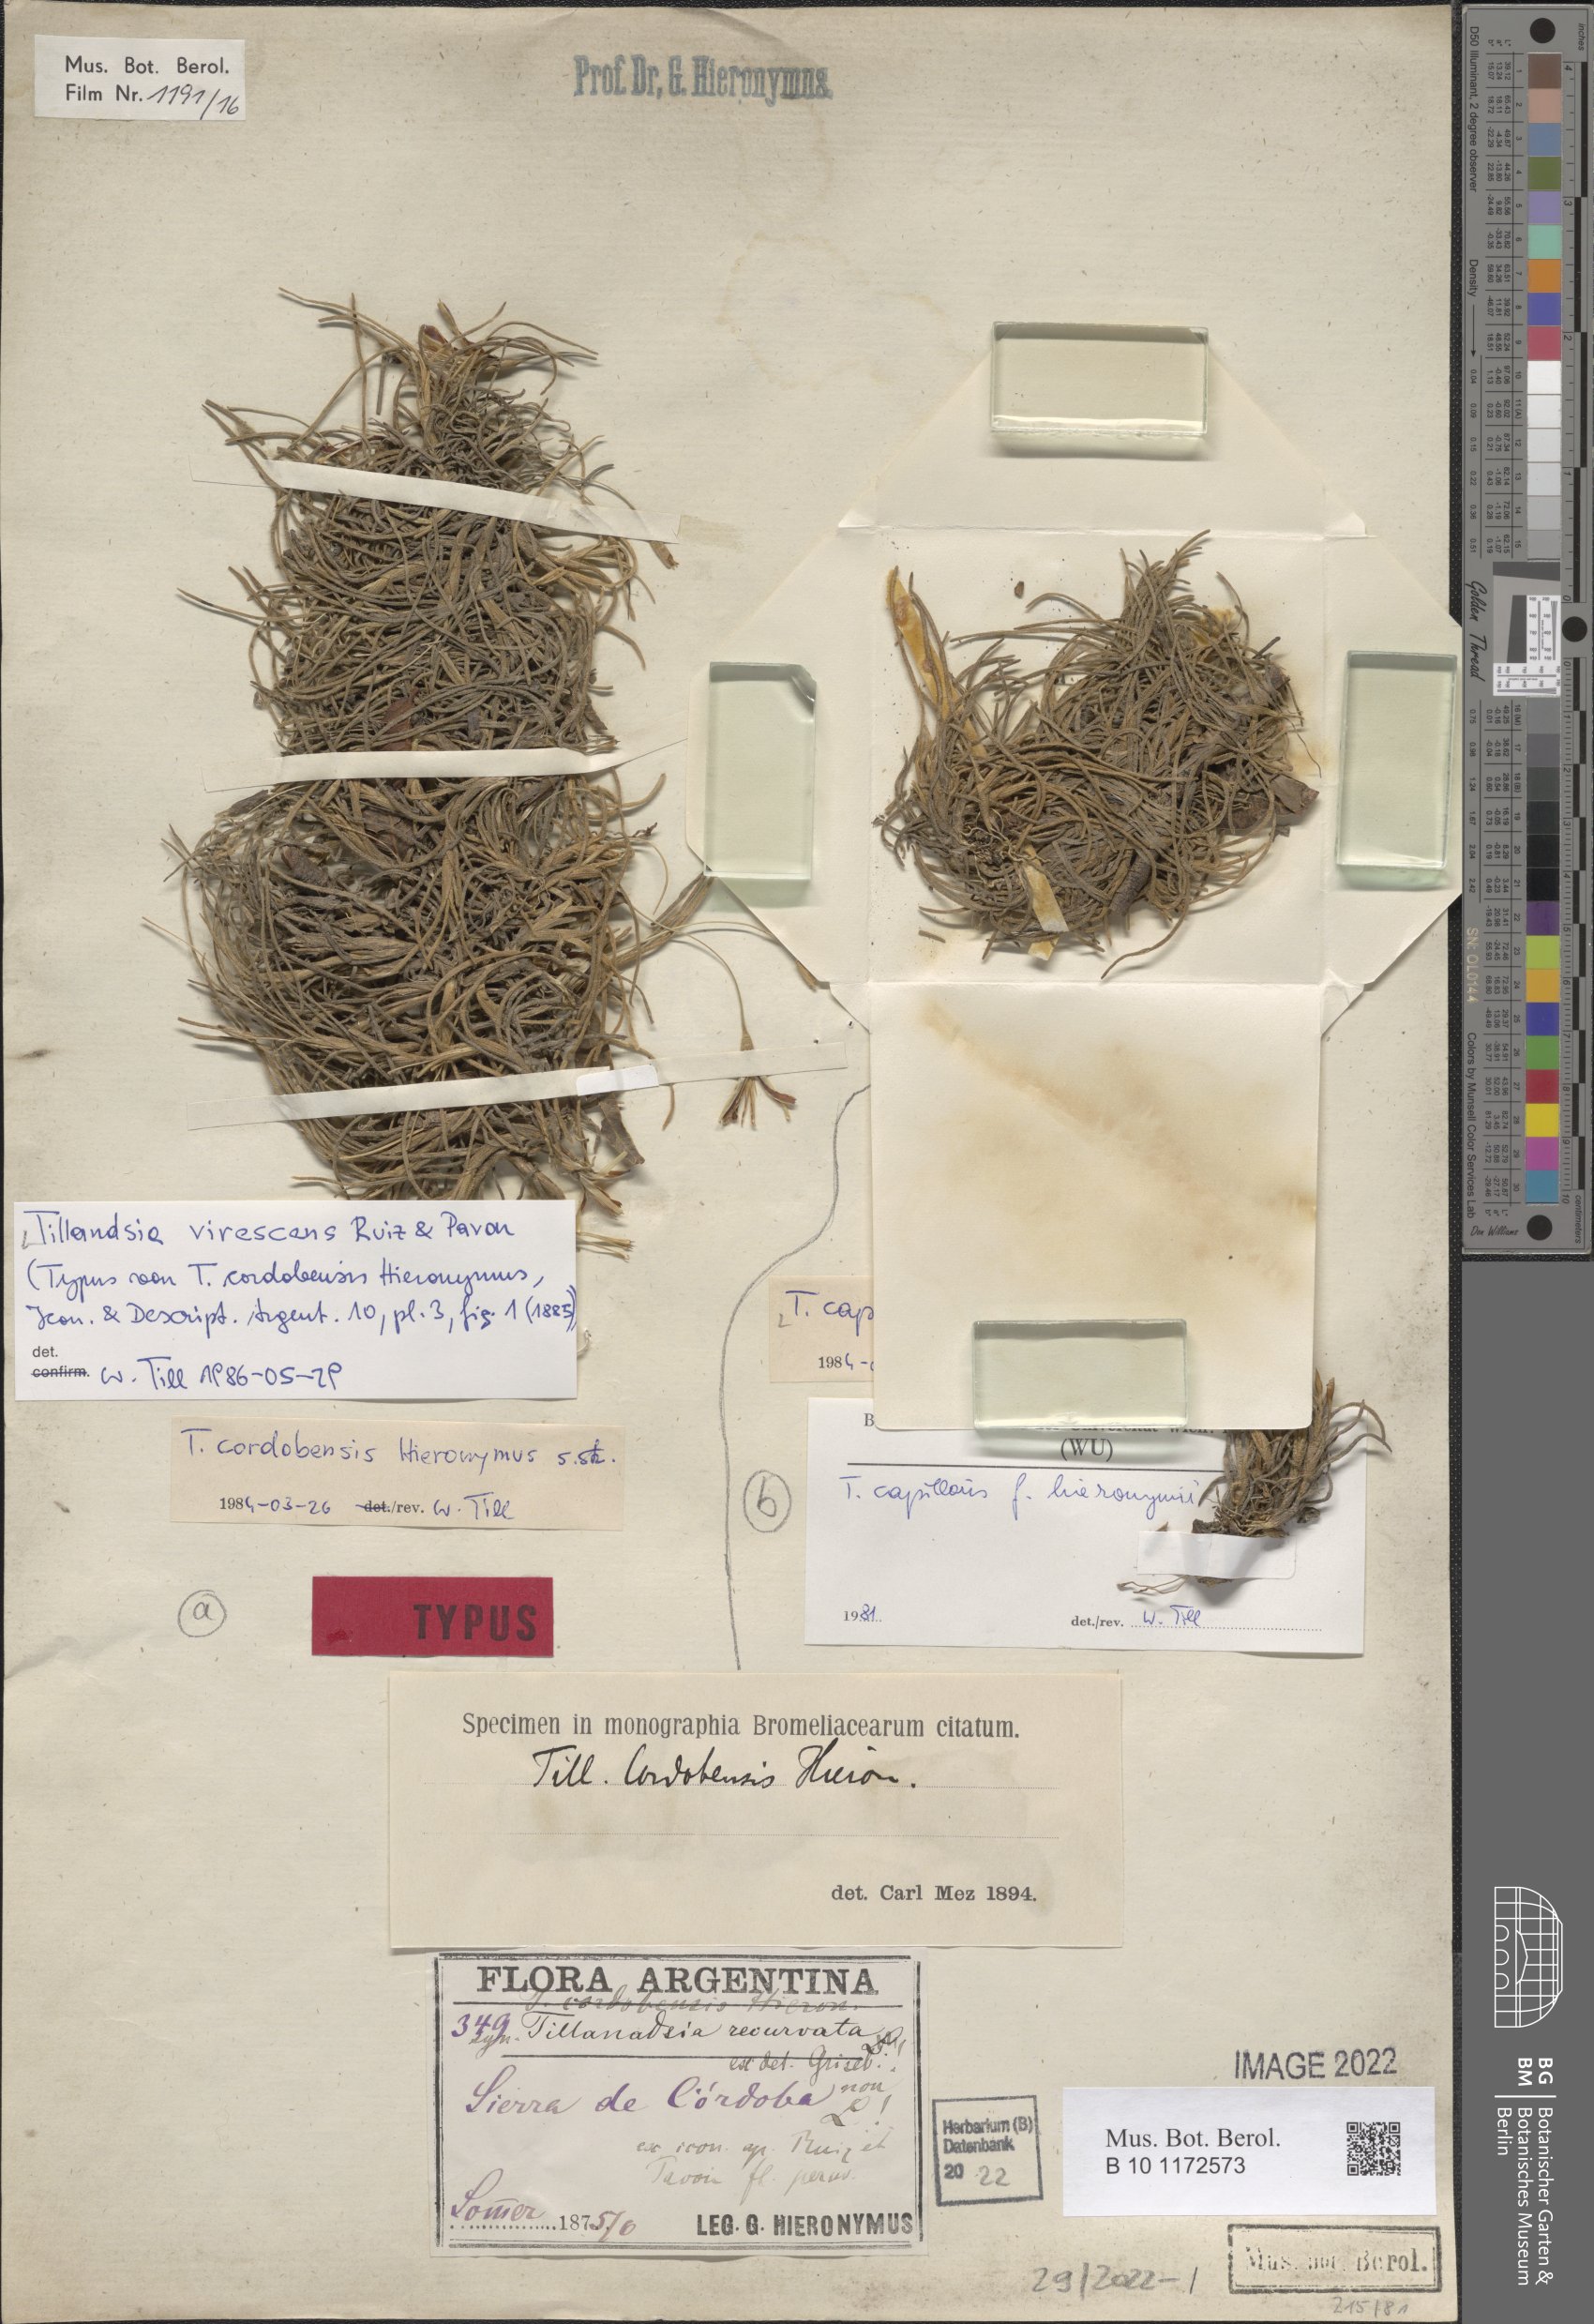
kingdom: Plantae
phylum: Tracheophyta
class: Liliopsida
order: Poales
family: Bromeliaceae
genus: Tillandsia
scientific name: Tillandsia virescens
